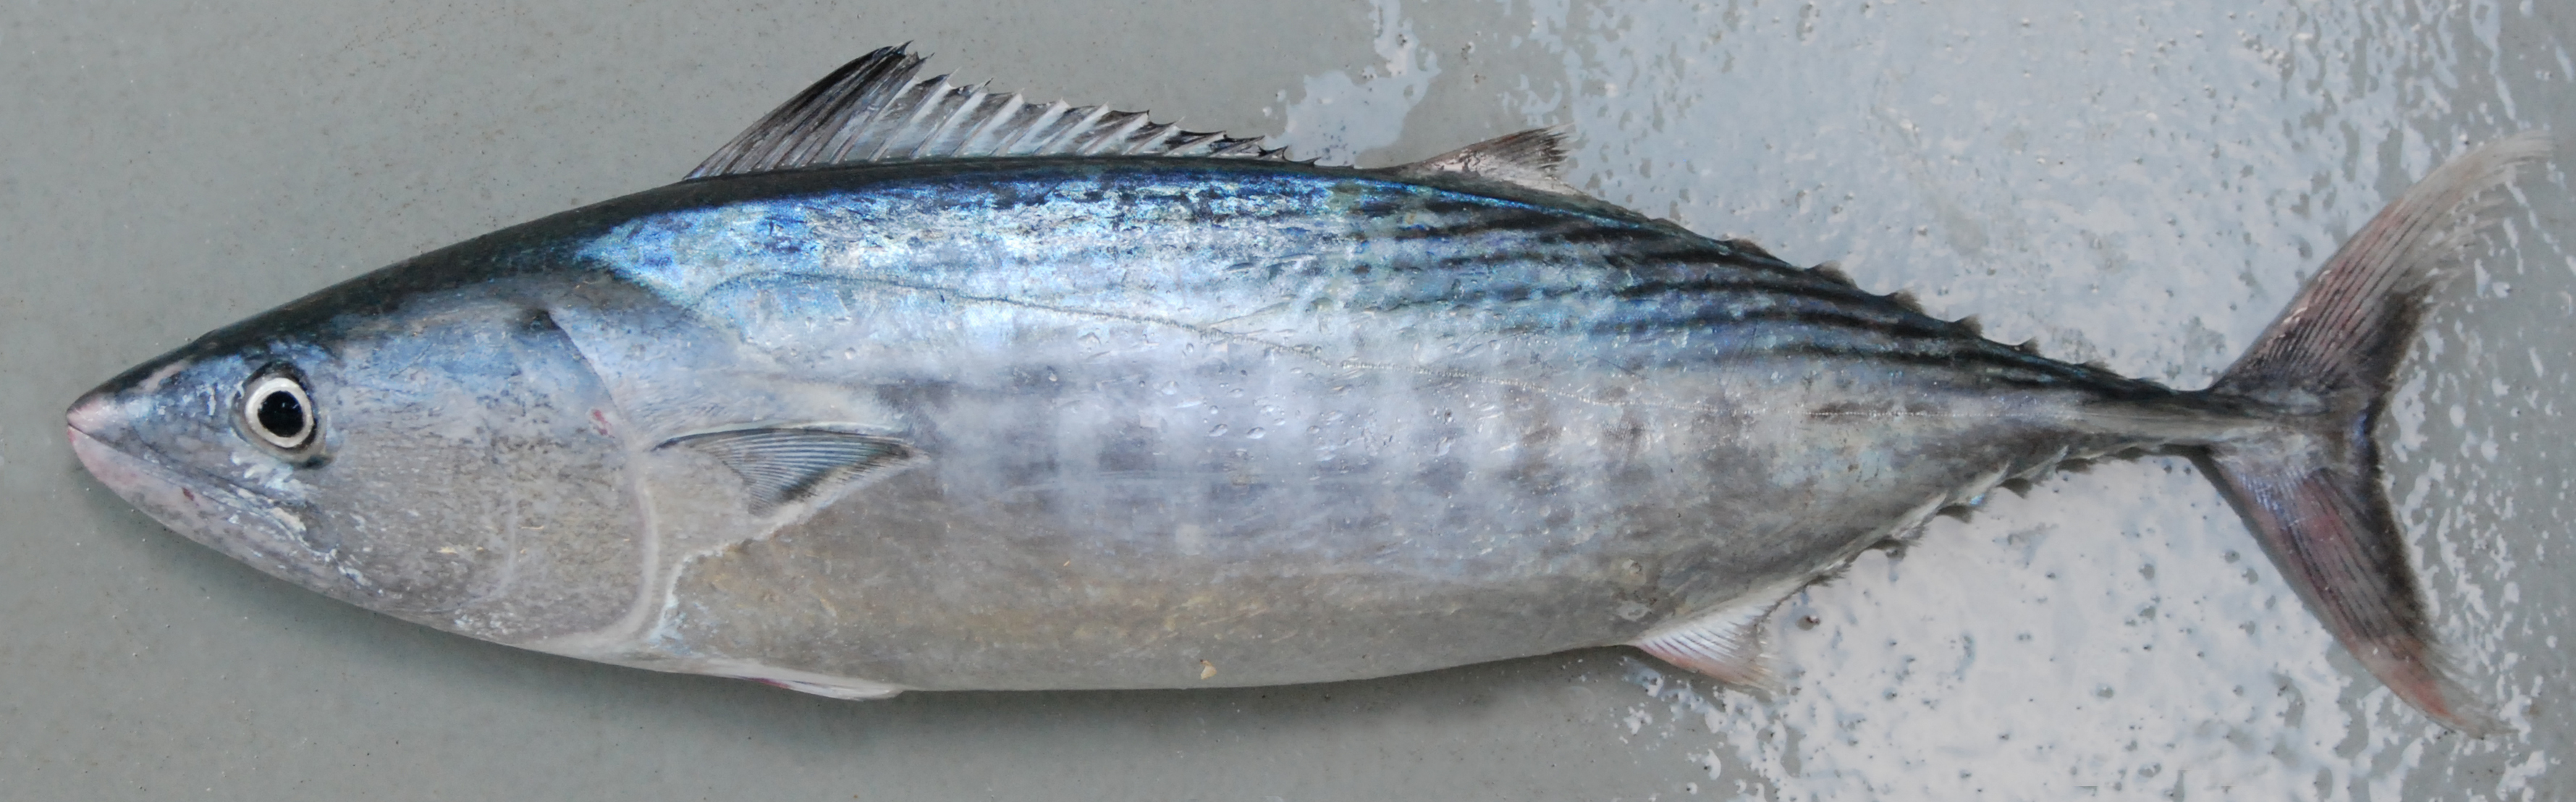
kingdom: Animalia
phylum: Chordata
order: Perciformes
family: Scombridae
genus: Sarda
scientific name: Sarda orientalis
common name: Striped bonito
